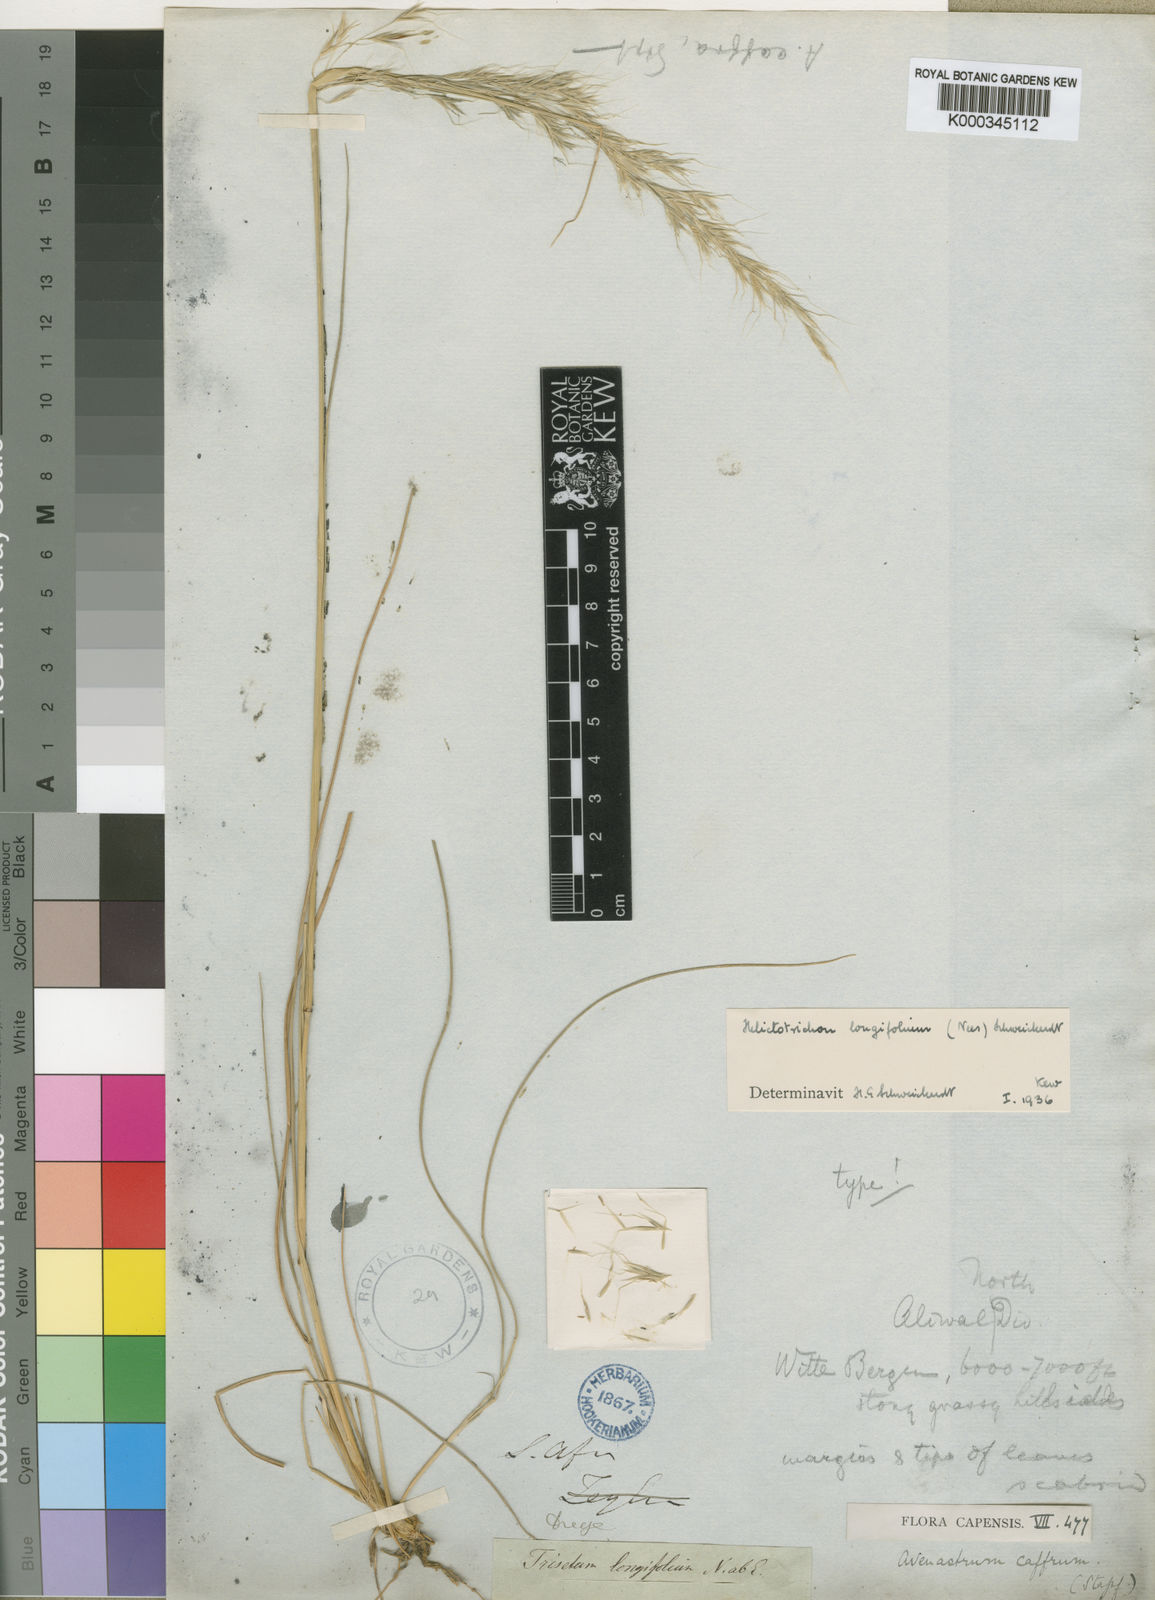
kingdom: Plantae
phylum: Tracheophyta
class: Liliopsida
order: Poales
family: Poaceae
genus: Trisetopsis
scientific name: Trisetopsis longifolia
